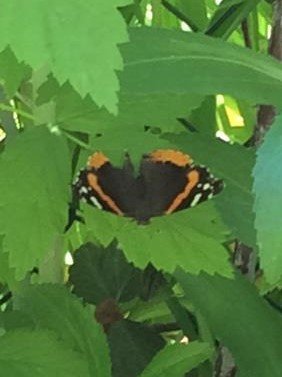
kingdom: Animalia
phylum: Arthropoda
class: Insecta
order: Lepidoptera
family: Nymphalidae
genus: Vanessa
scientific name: Vanessa atalanta
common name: Red Admiral
